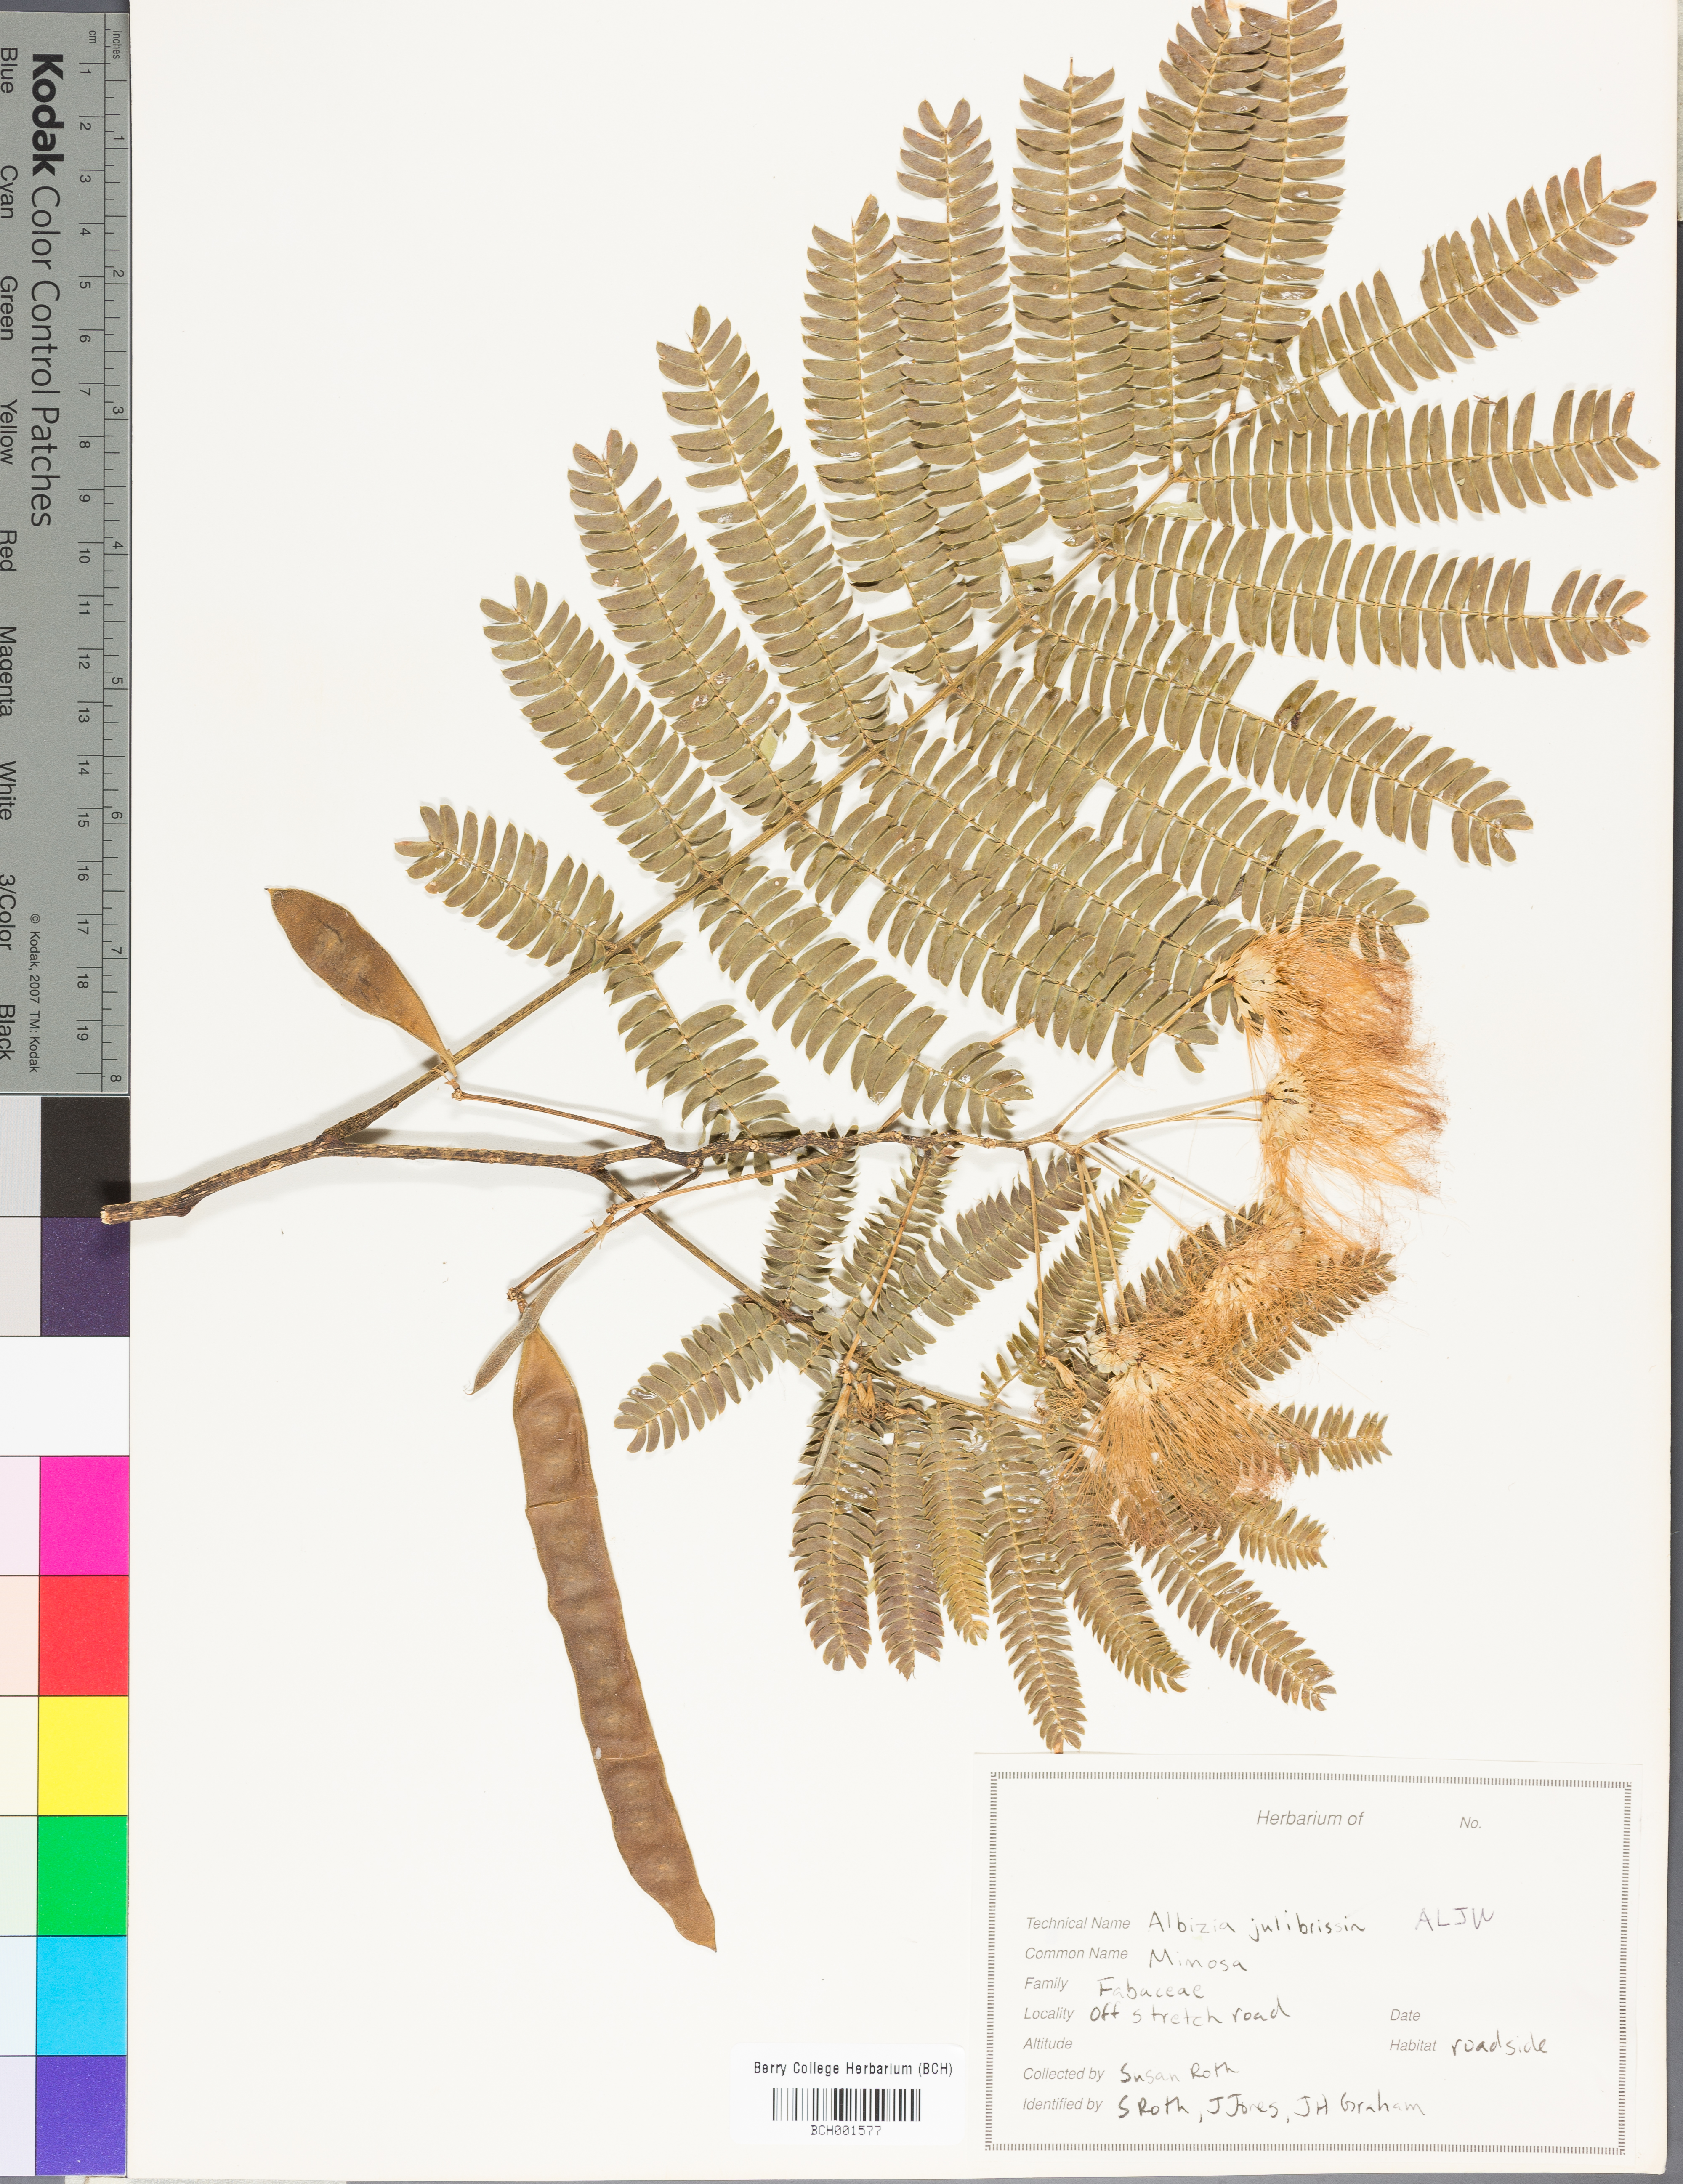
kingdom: Plantae
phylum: Tracheophyta
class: Magnoliopsida
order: Fabales
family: Fabaceae
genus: Albizia
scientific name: Albizia julibrissin
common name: Silktree
